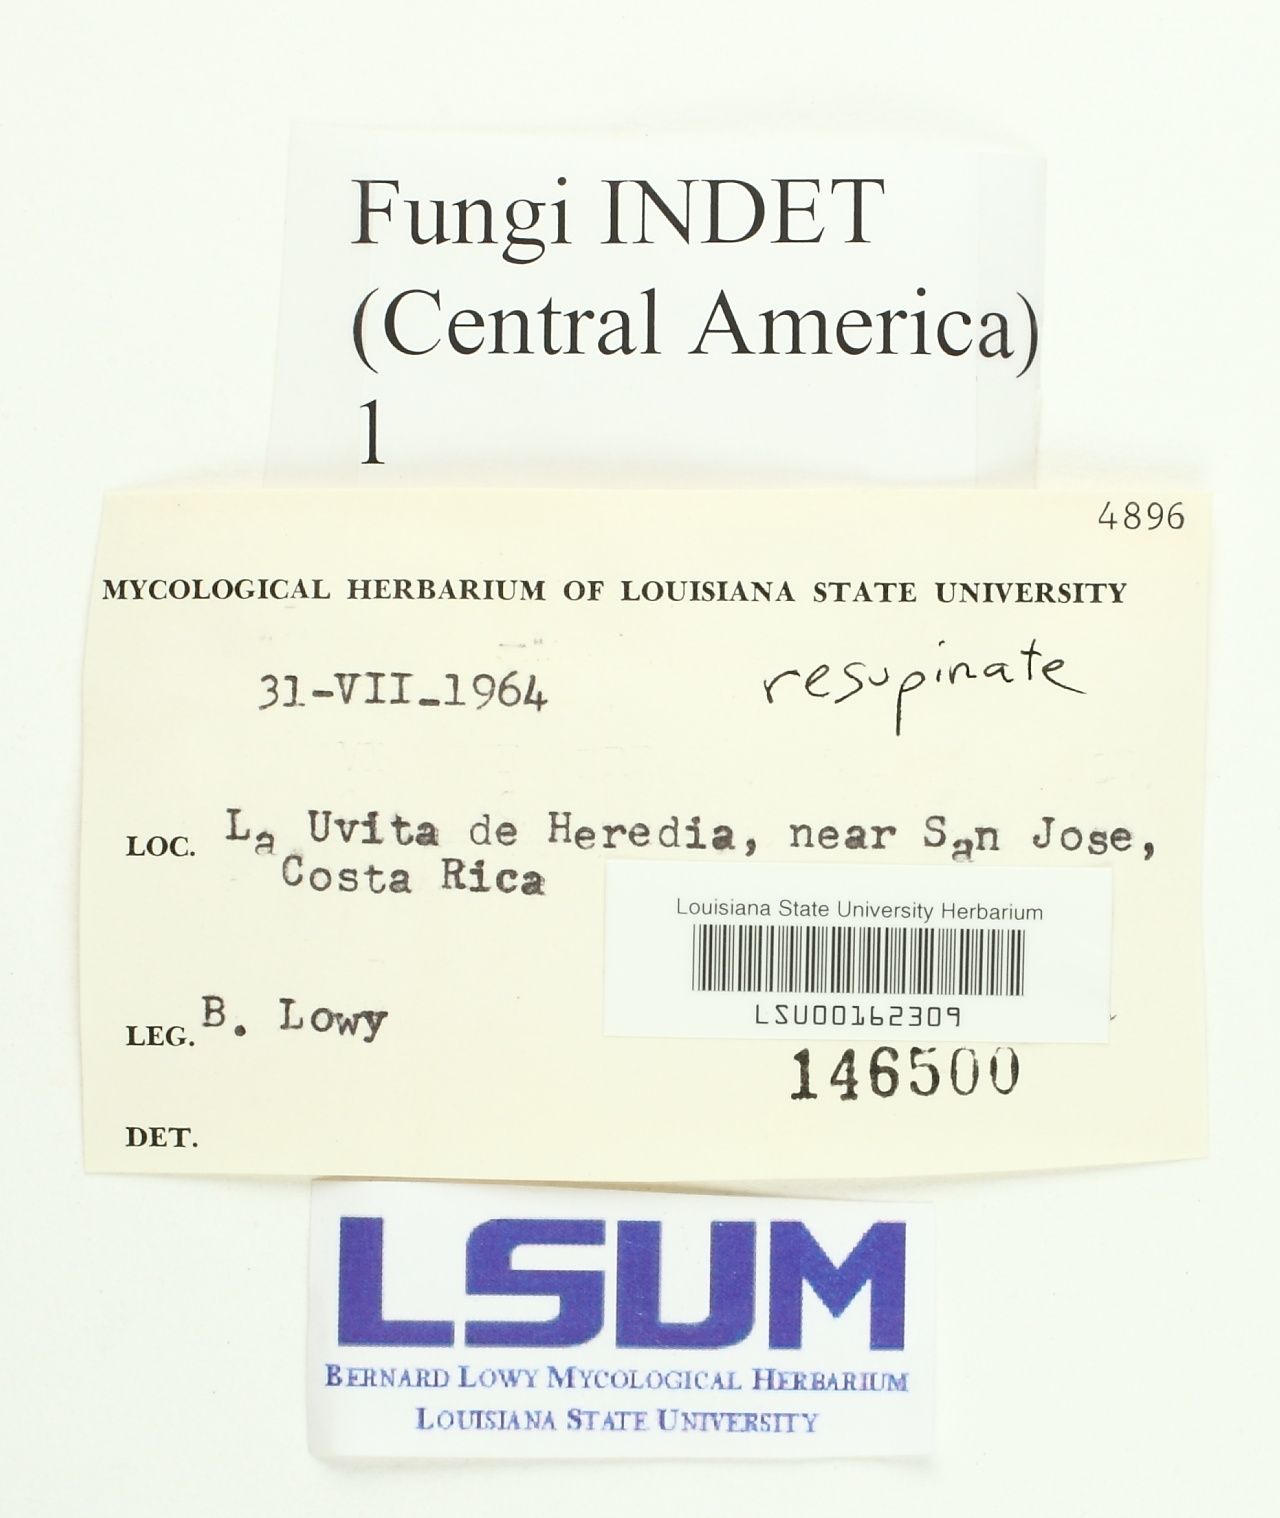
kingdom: Fungi
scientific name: Fungi
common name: Fungi
